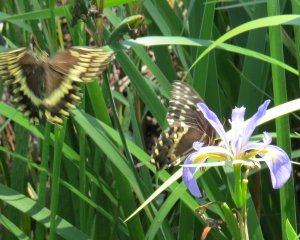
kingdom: Animalia
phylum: Arthropoda
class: Insecta
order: Lepidoptera
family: Papilionidae
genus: Pterourus
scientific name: Pterourus palamedes
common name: Palamedes Swallowtail
